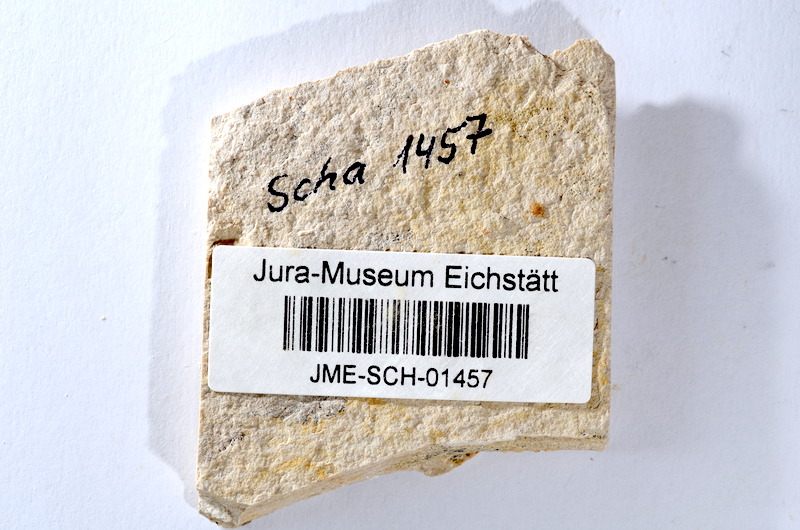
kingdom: Animalia
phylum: Chordata
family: Ascalaboidae
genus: Tharsis
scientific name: Tharsis dubius
